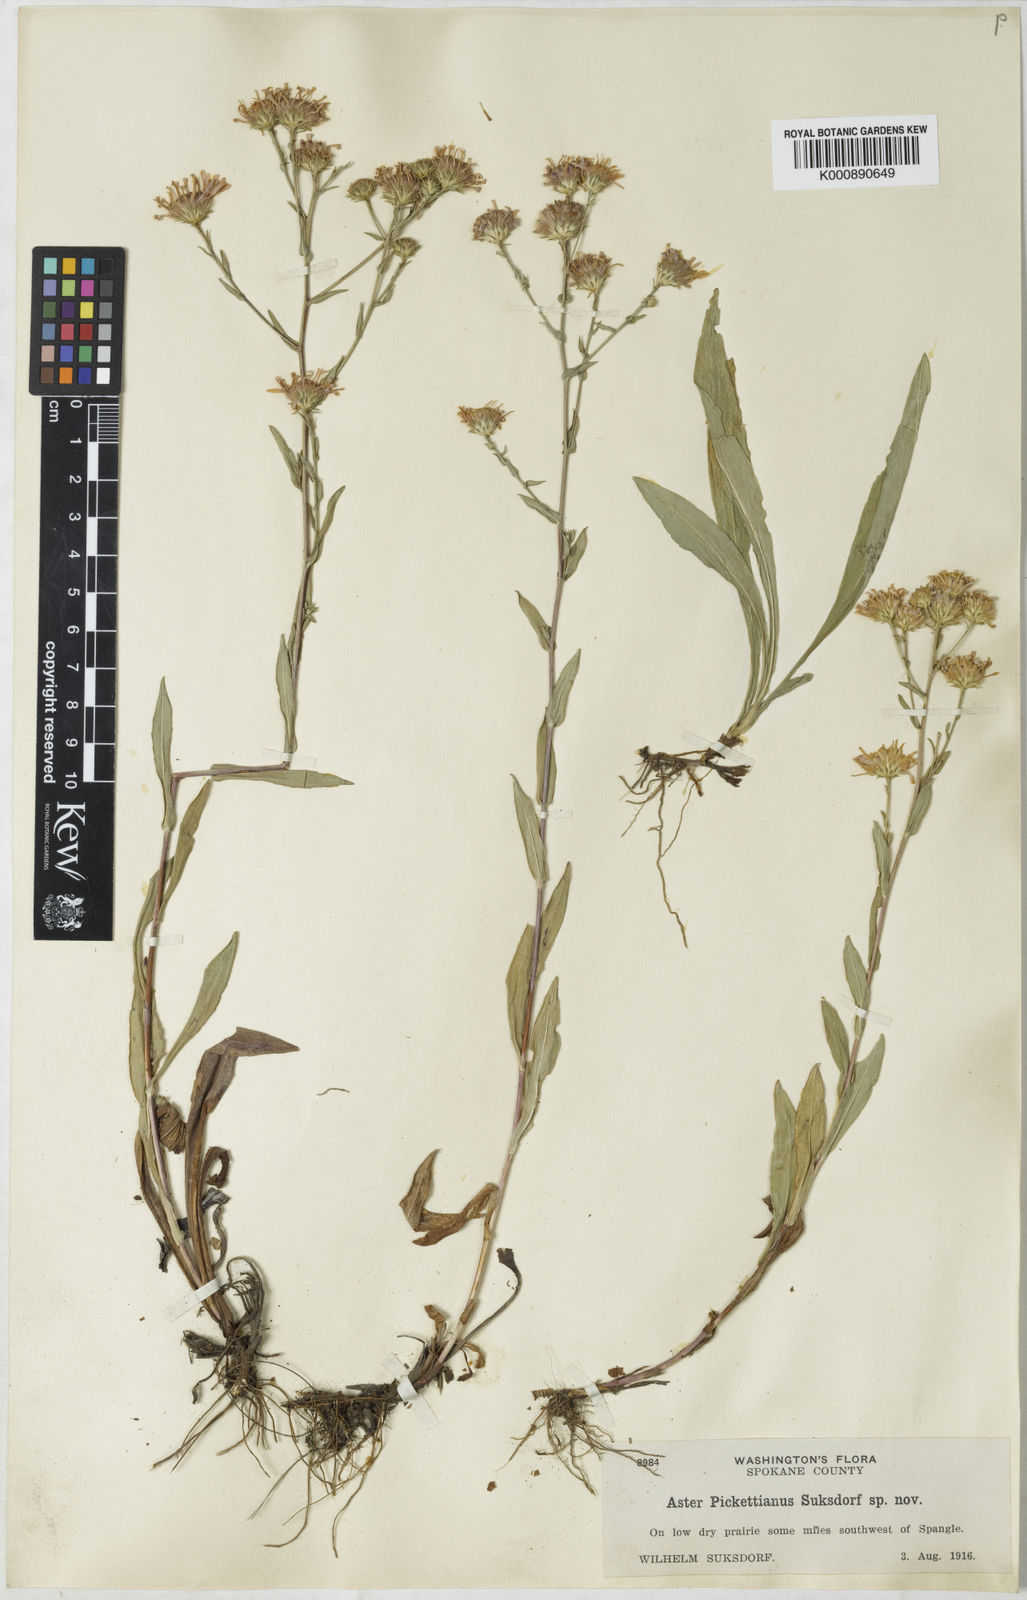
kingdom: Plantae
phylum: Tracheophyta
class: Magnoliopsida
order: Asterales
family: Asteraceae
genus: Symphyotrichum
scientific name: Symphyotrichum laeve
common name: Glaucous aster
